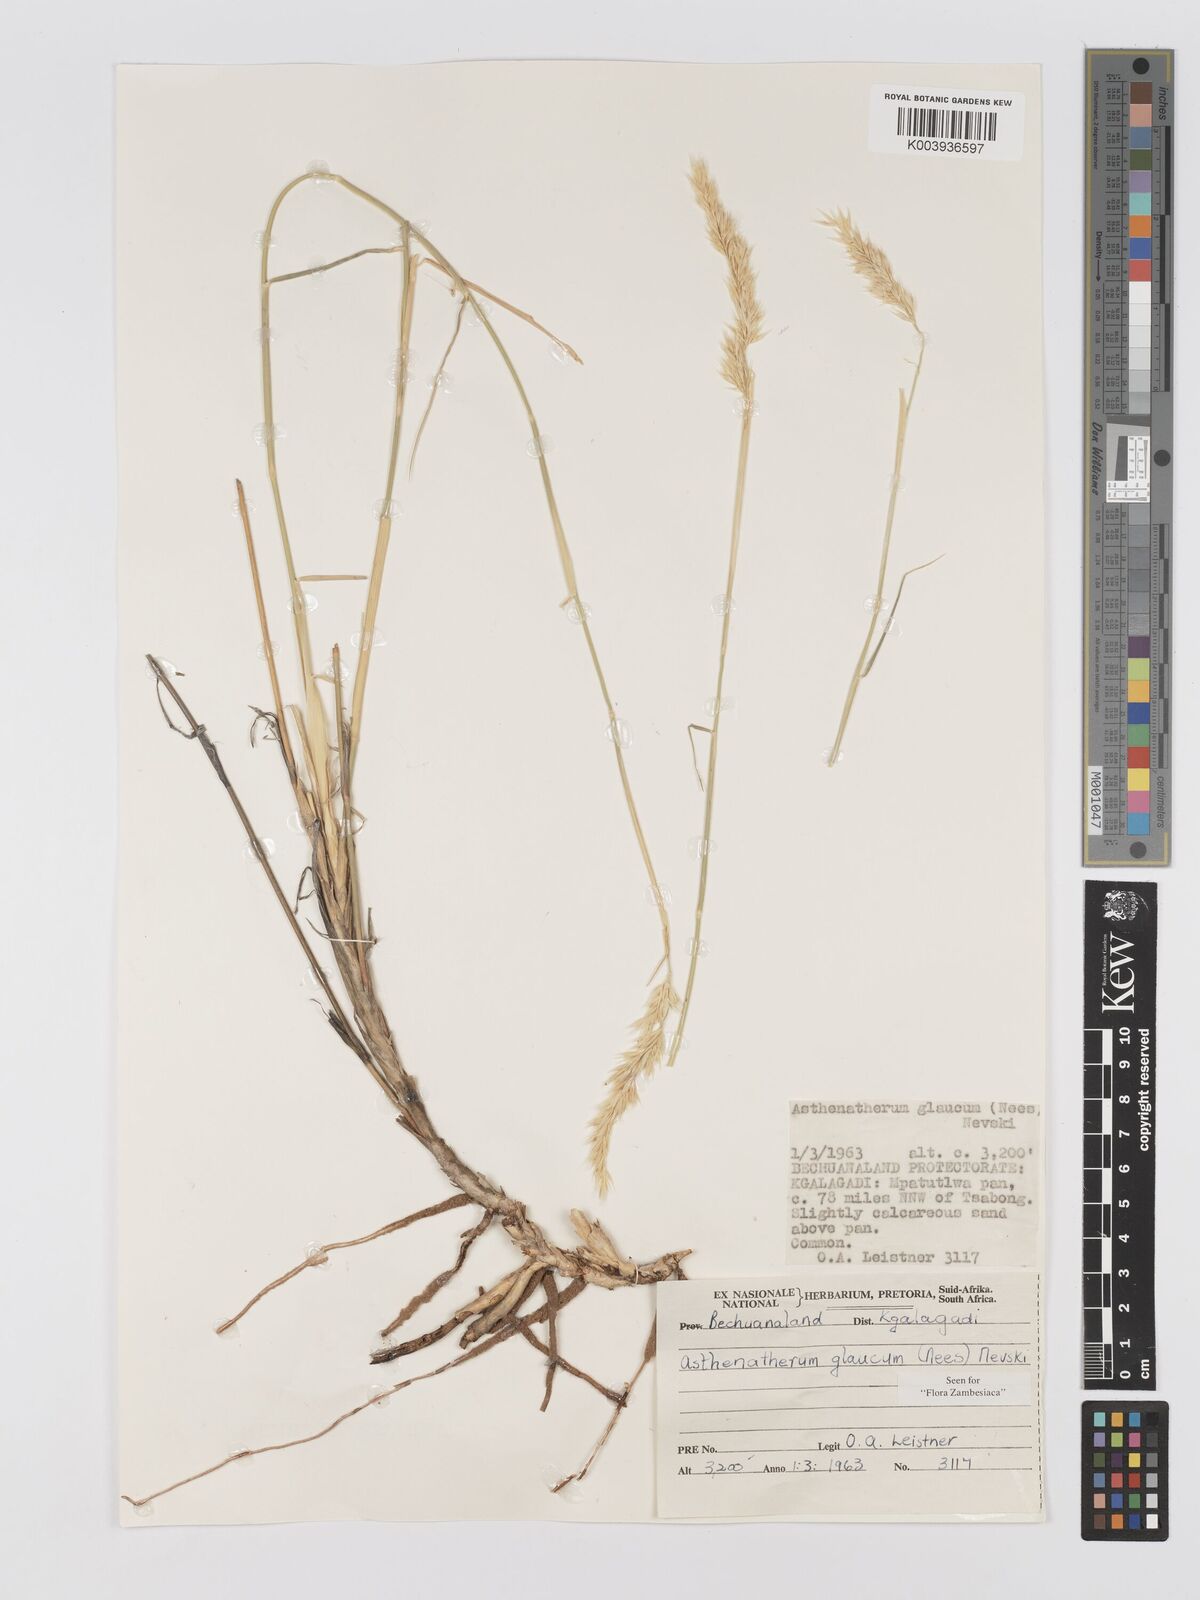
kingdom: Plantae
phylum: Tracheophyta
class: Liliopsida
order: Poales
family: Poaceae
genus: Centropodia
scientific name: Centropodia glauca
